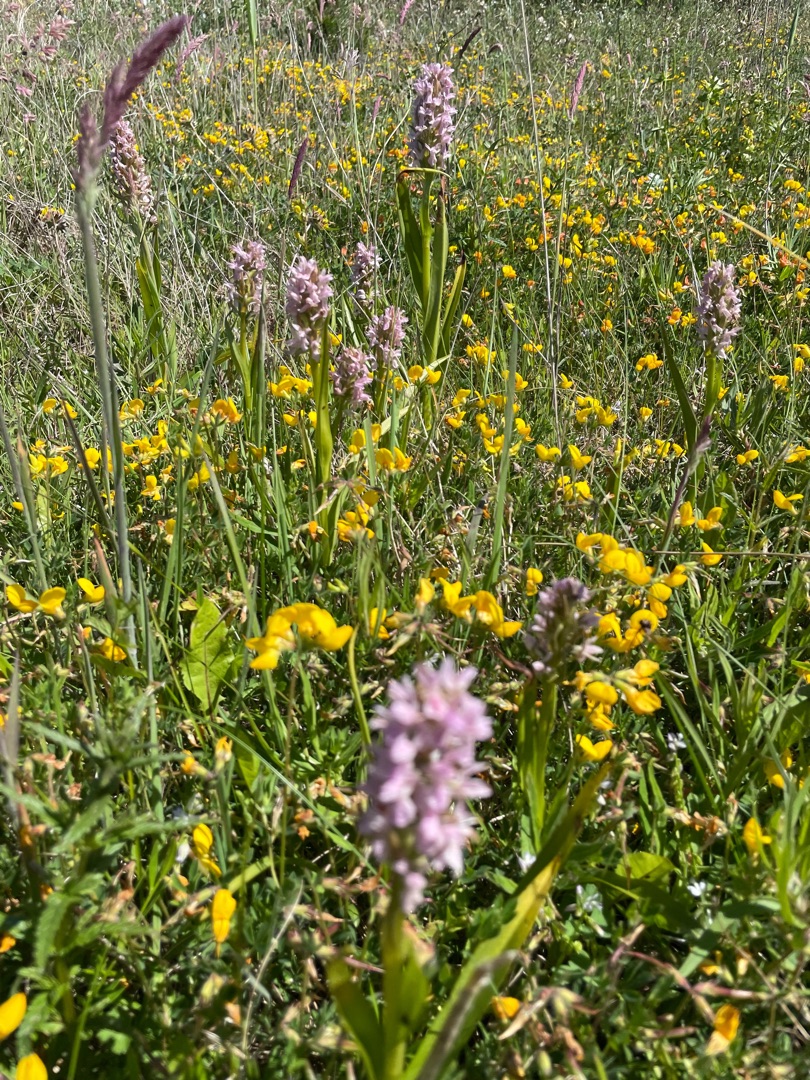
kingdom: Plantae
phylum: Tracheophyta
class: Liliopsida
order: Asparagales
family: Orchidaceae
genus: Dactylorhiza
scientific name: Dactylorhiza incarnata
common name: Kødfarvet gøgeurt
